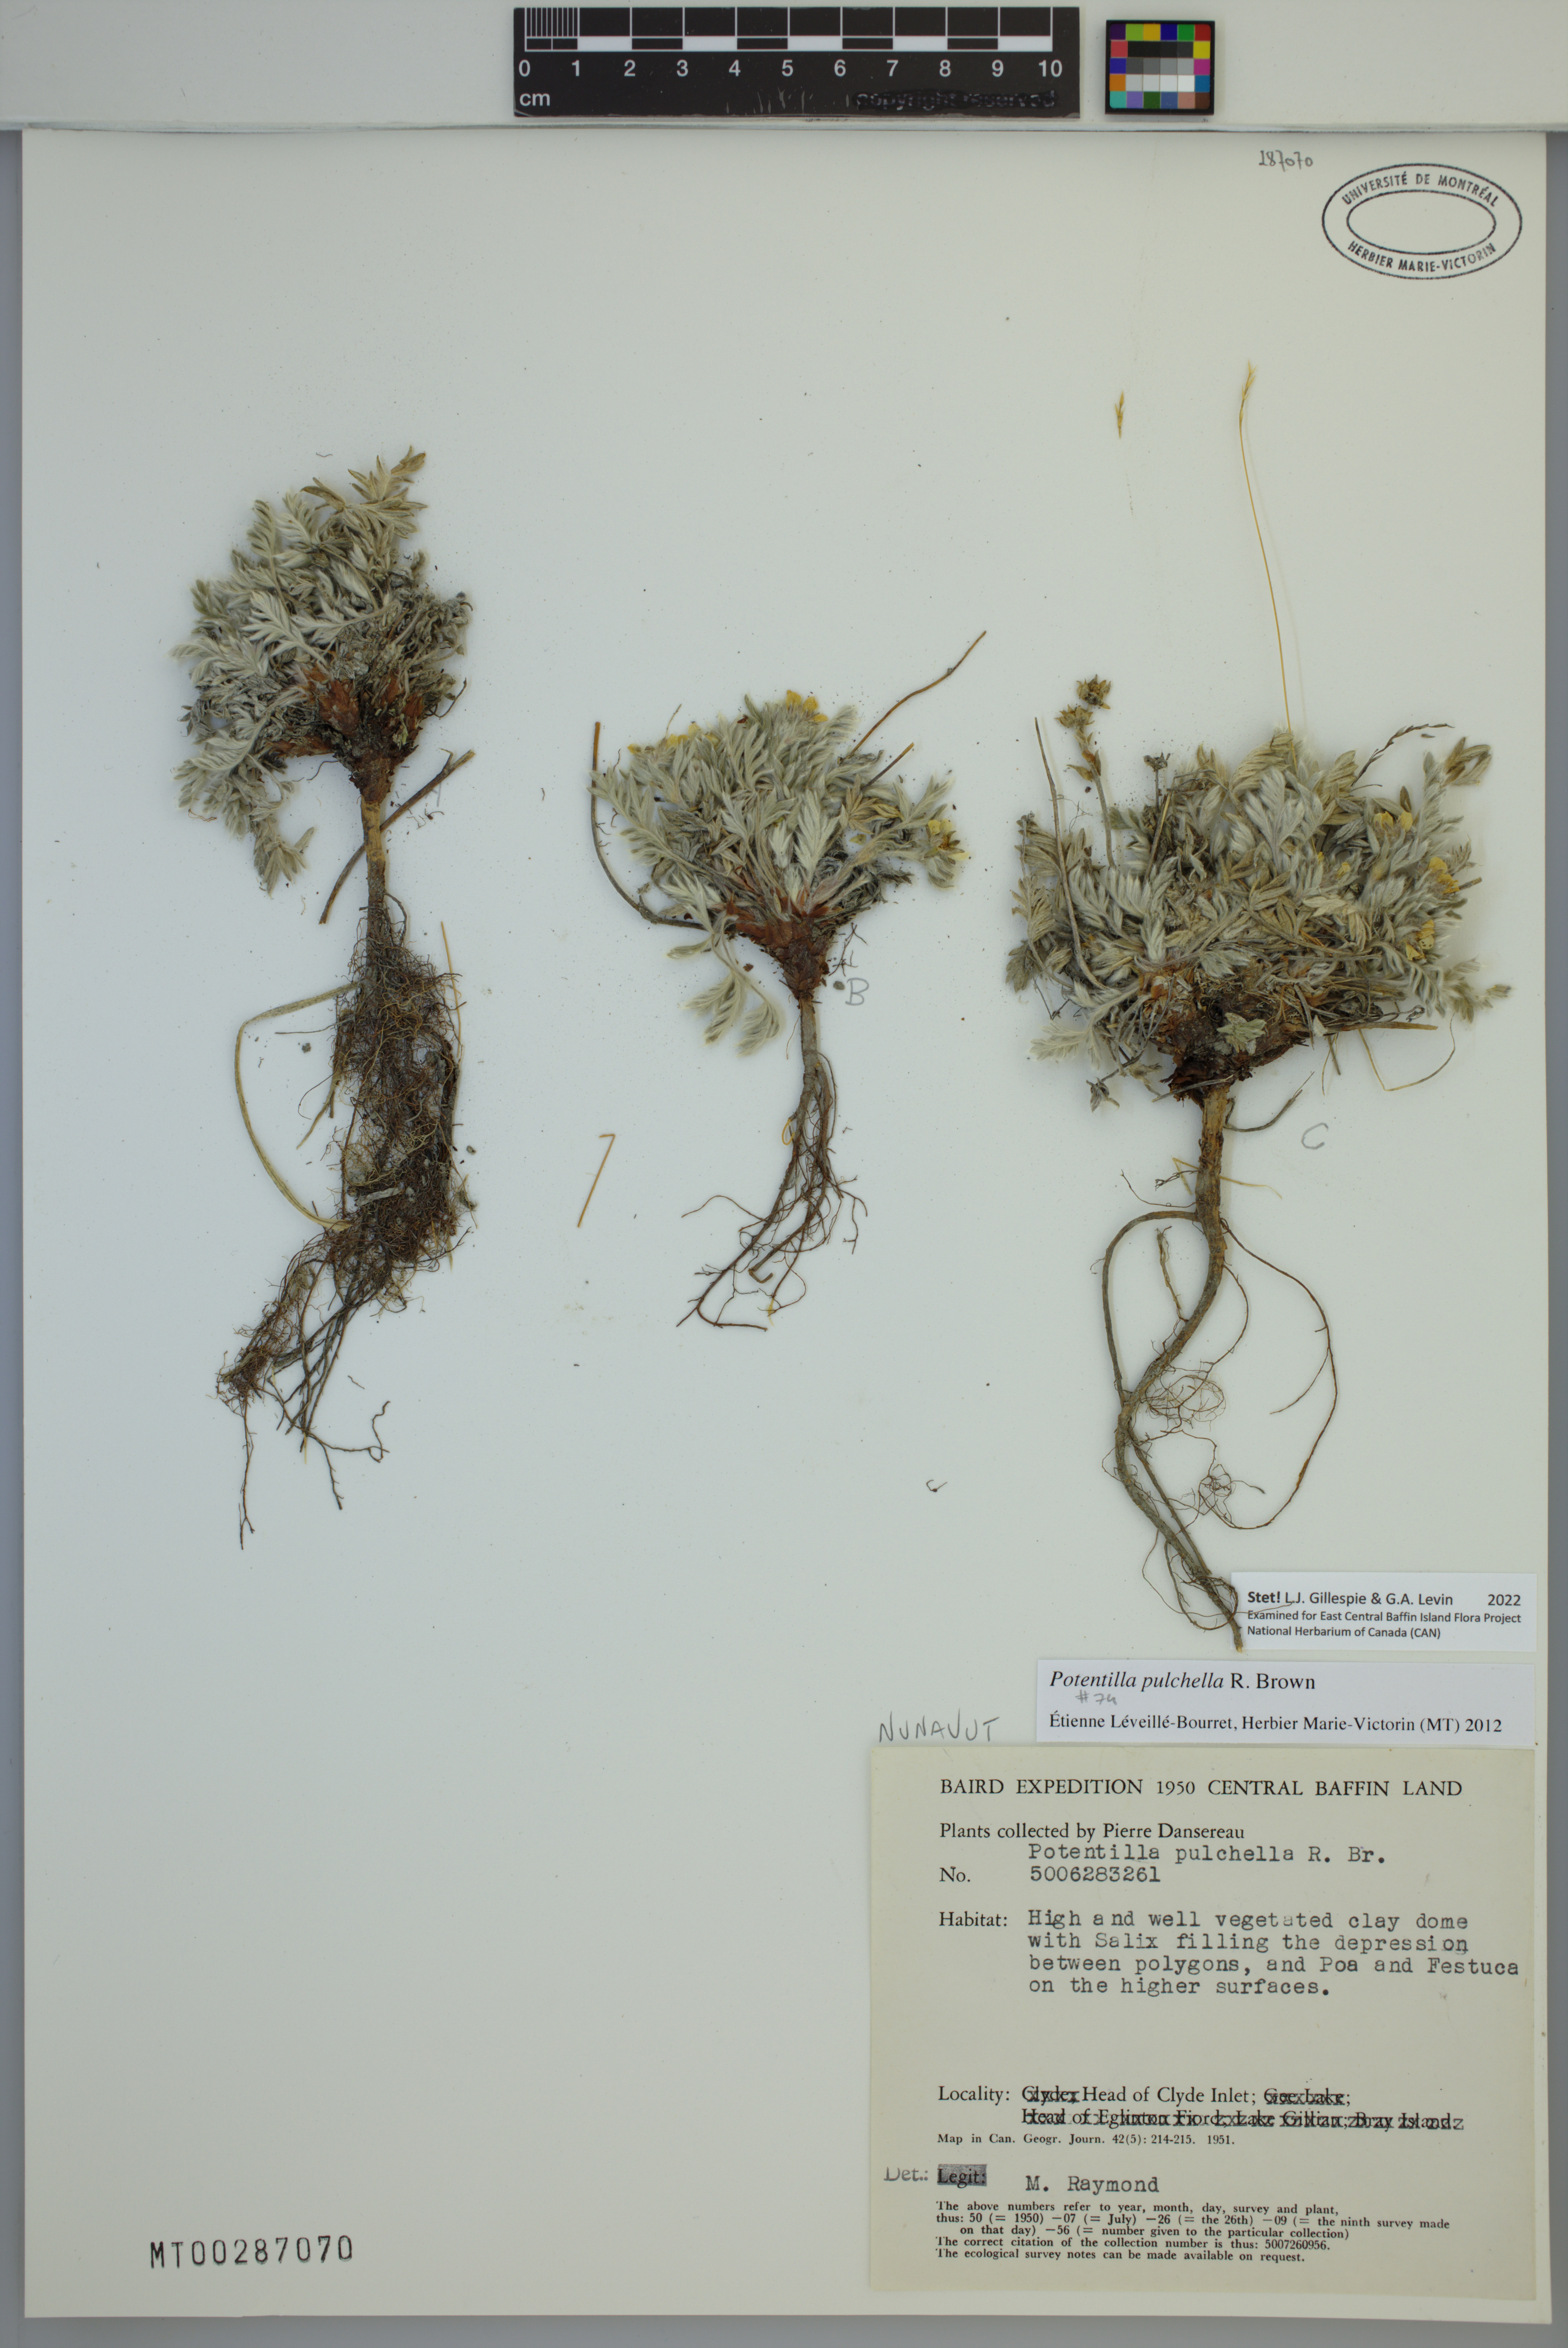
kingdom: Plantae
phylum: Tracheophyta
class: Magnoliopsida
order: Rosales
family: Rosaceae
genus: Potentilla
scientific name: Potentilla pulchella
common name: Pretty cinquefoil
